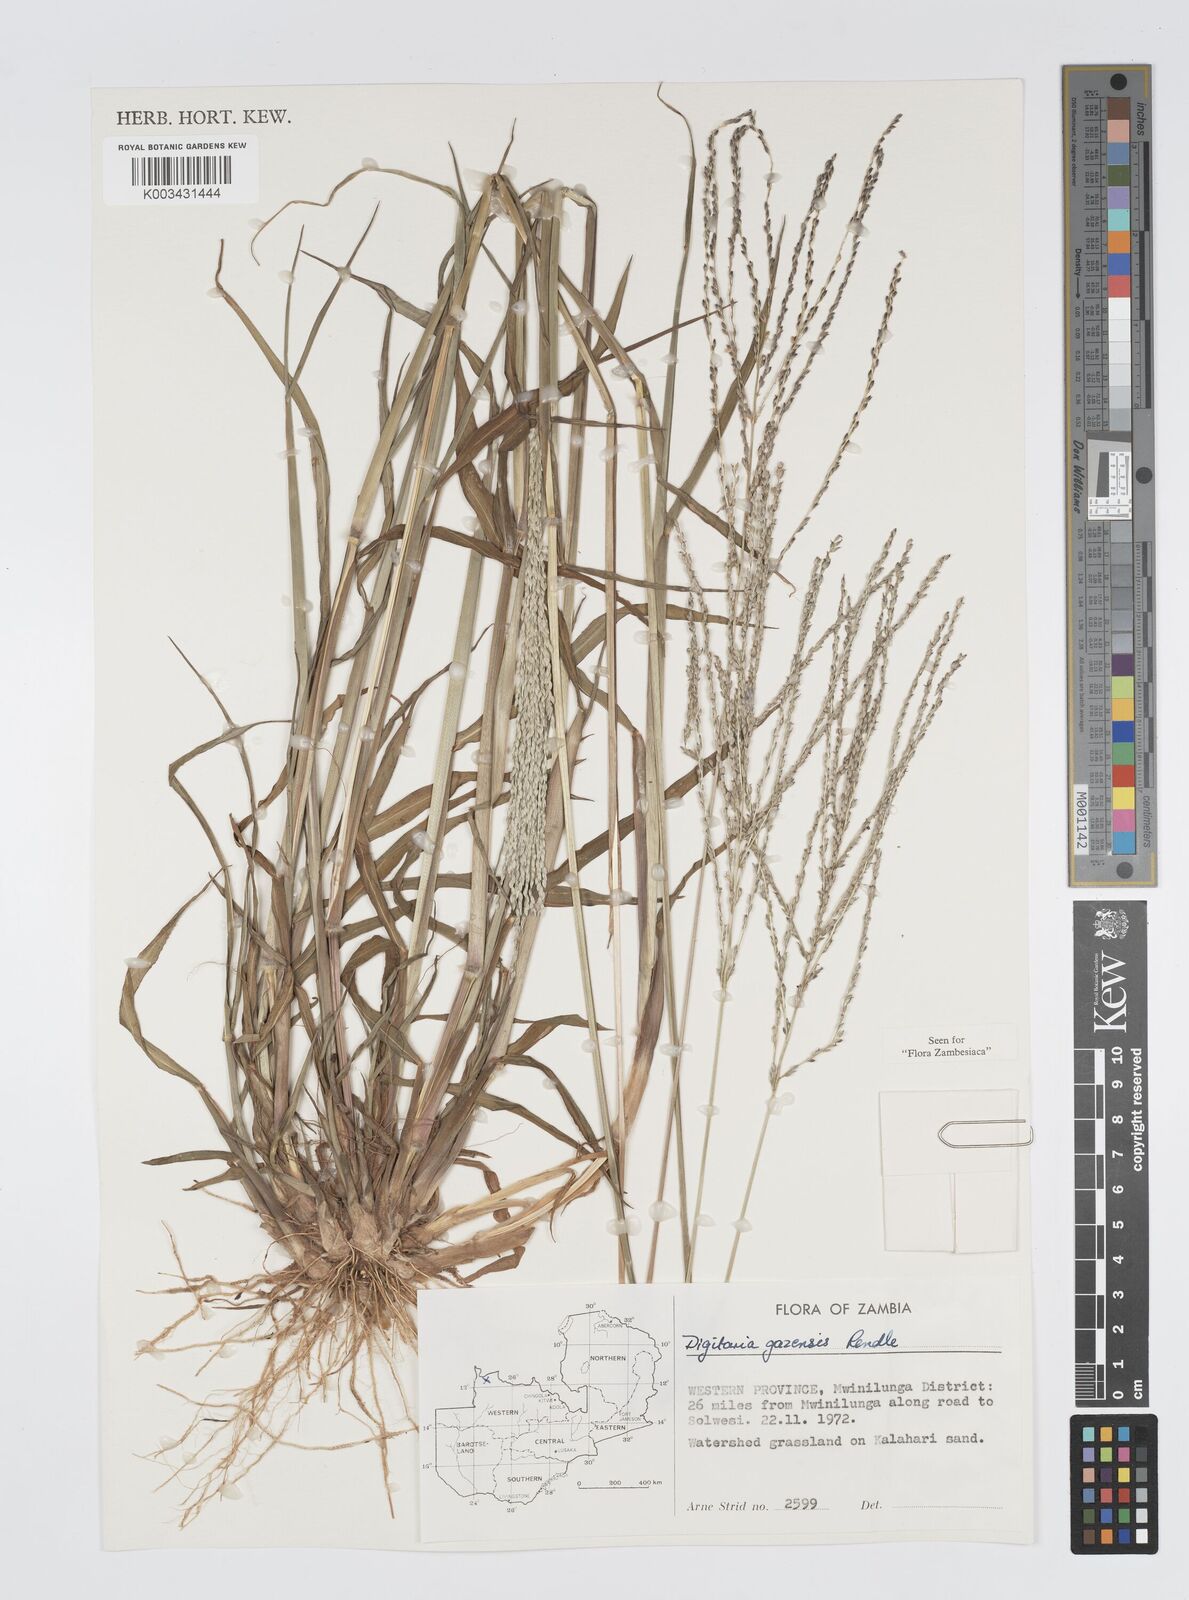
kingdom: Plantae
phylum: Tracheophyta
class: Liliopsida
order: Poales
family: Poaceae
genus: Digitaria
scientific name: Digitaria gazensis
